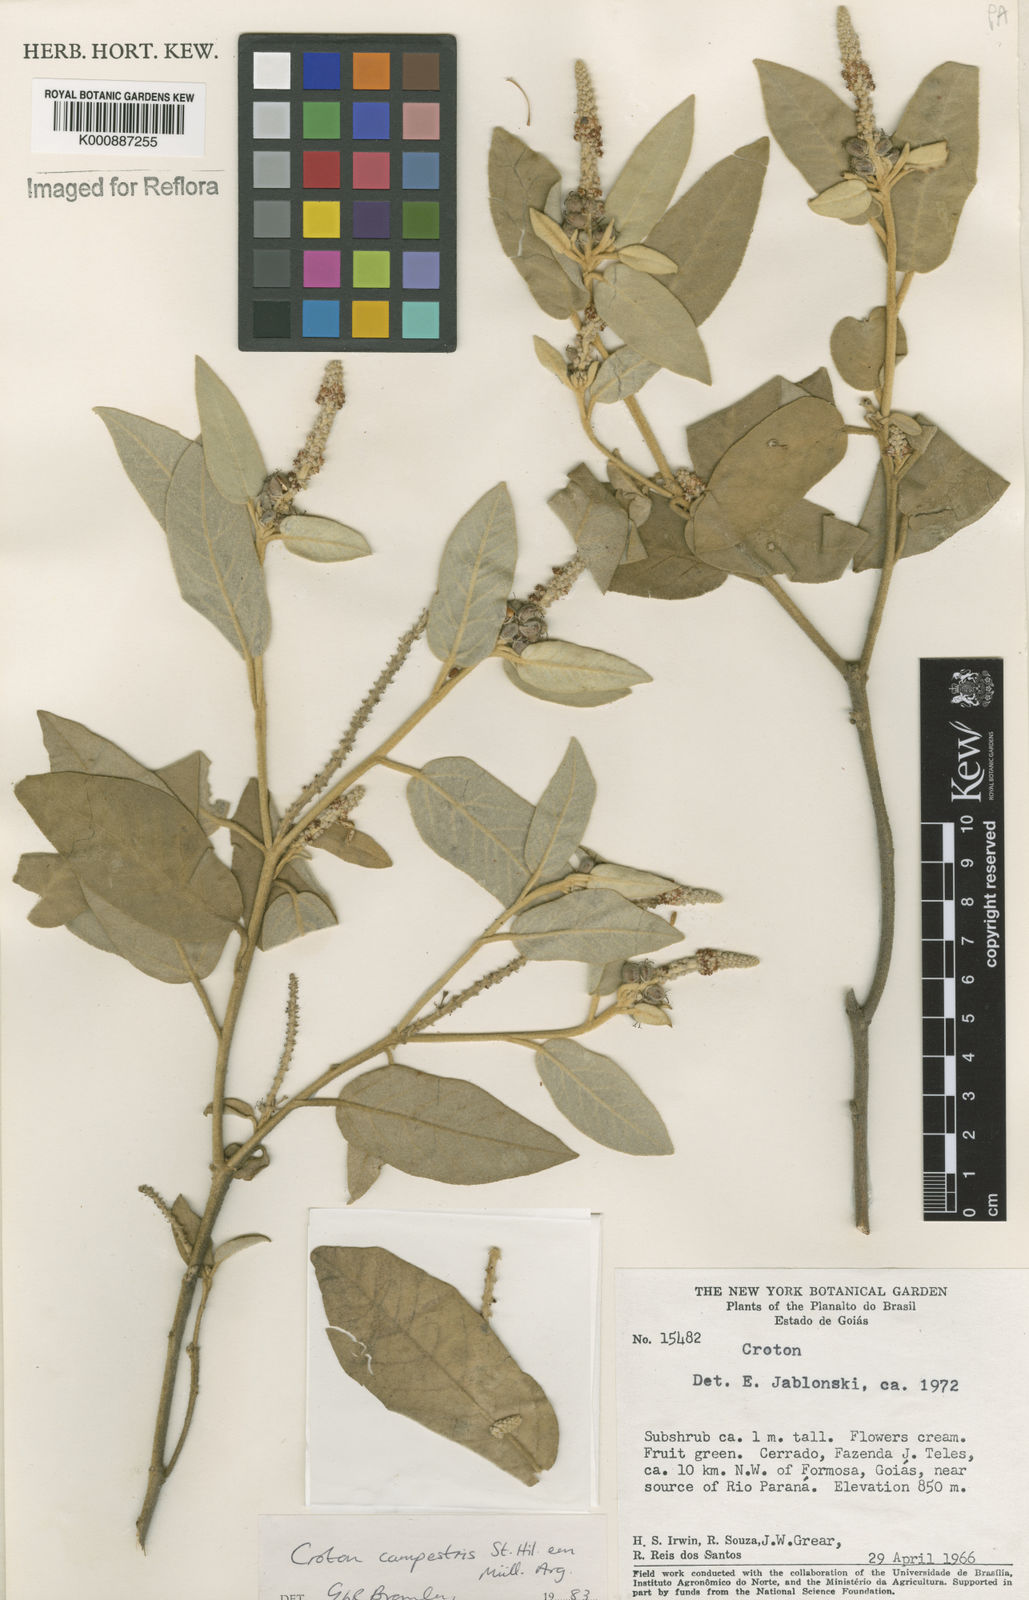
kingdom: Plantae
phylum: Tracheophyta
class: Magnoliopsida
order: Malpighiales
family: Euphorbiaceae
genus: Croton
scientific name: Croton campestris
